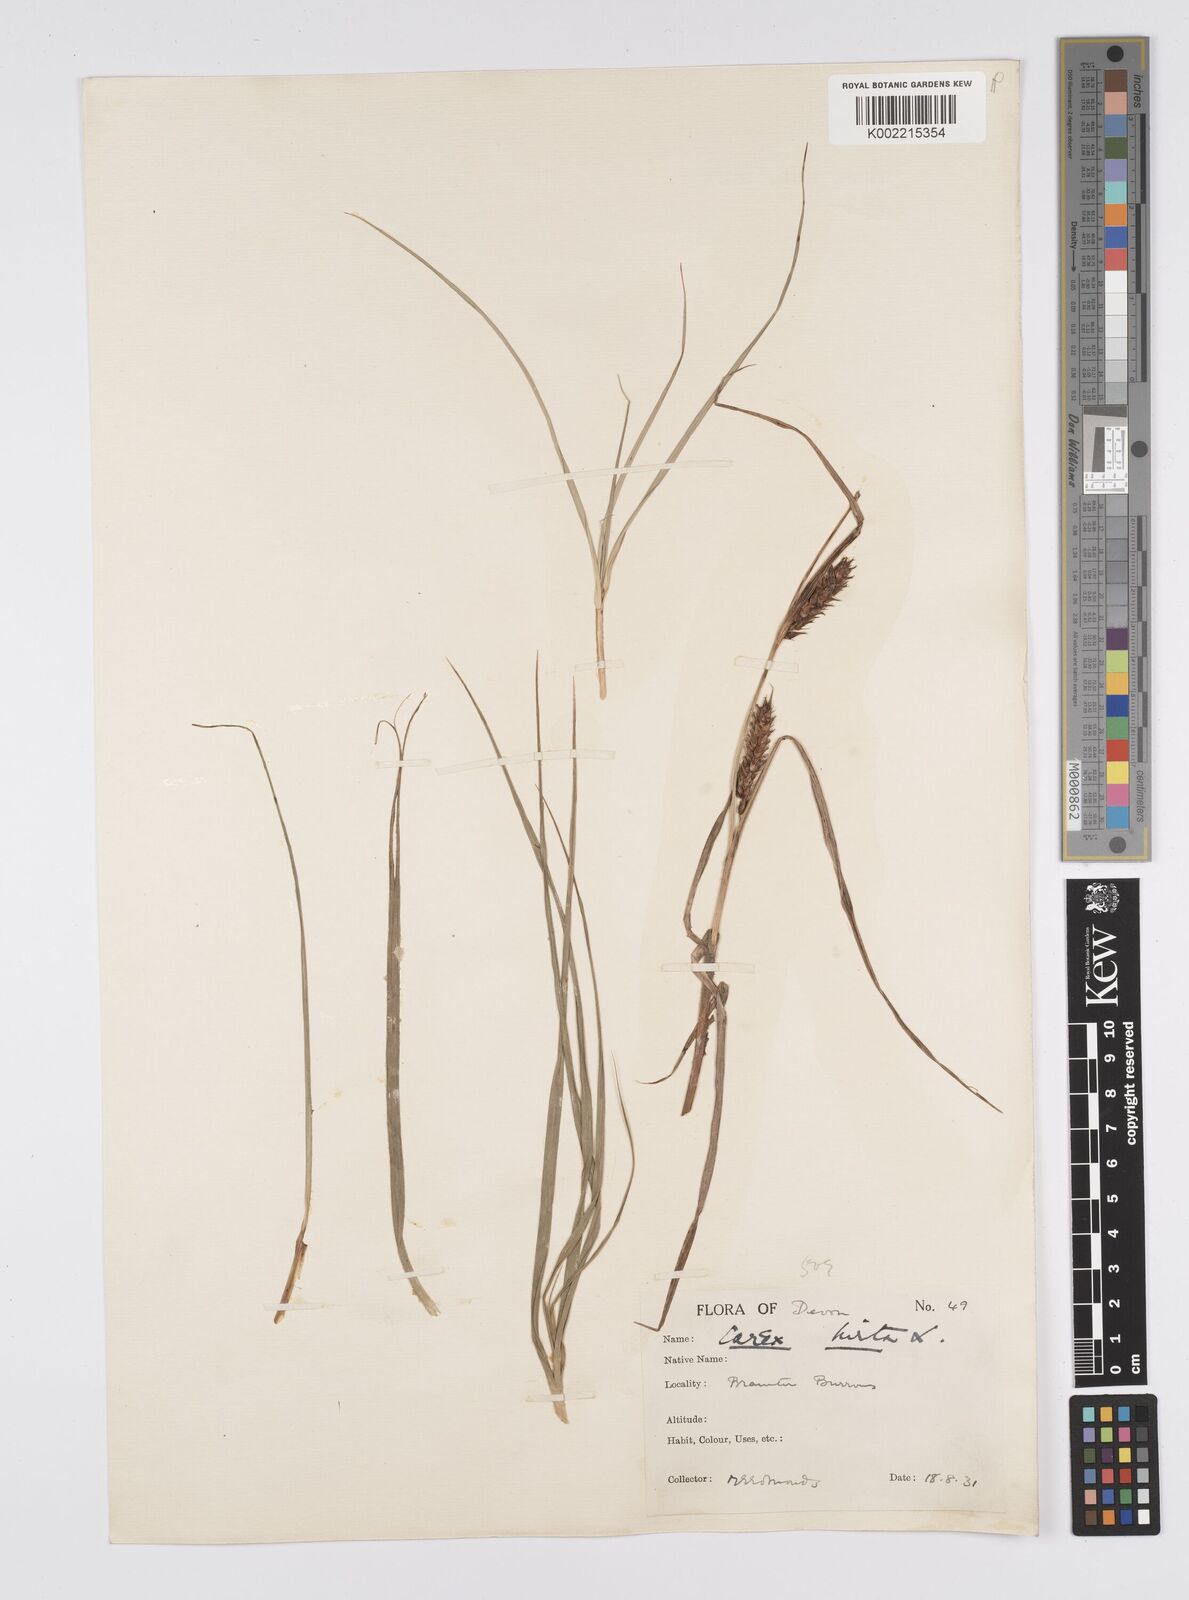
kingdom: Plantae
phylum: Tracheophyta
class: Liliopsida
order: Poales
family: Cyperaceae
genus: Carex
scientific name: Carex hirta
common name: Hairy sedge
